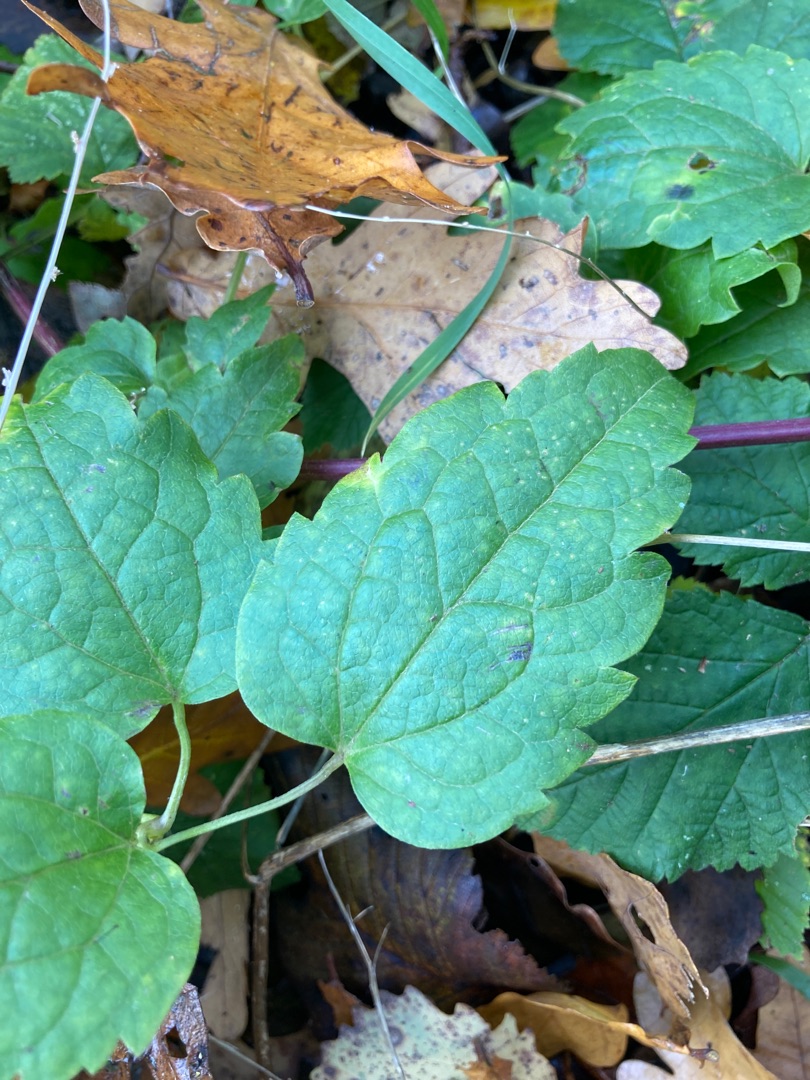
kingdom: Plantae
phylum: Tracheophyta
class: Magnoliopsida
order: Ranunculales
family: Ranunculaceae
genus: Clematis
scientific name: Clematis vitalba
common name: Skovranke
